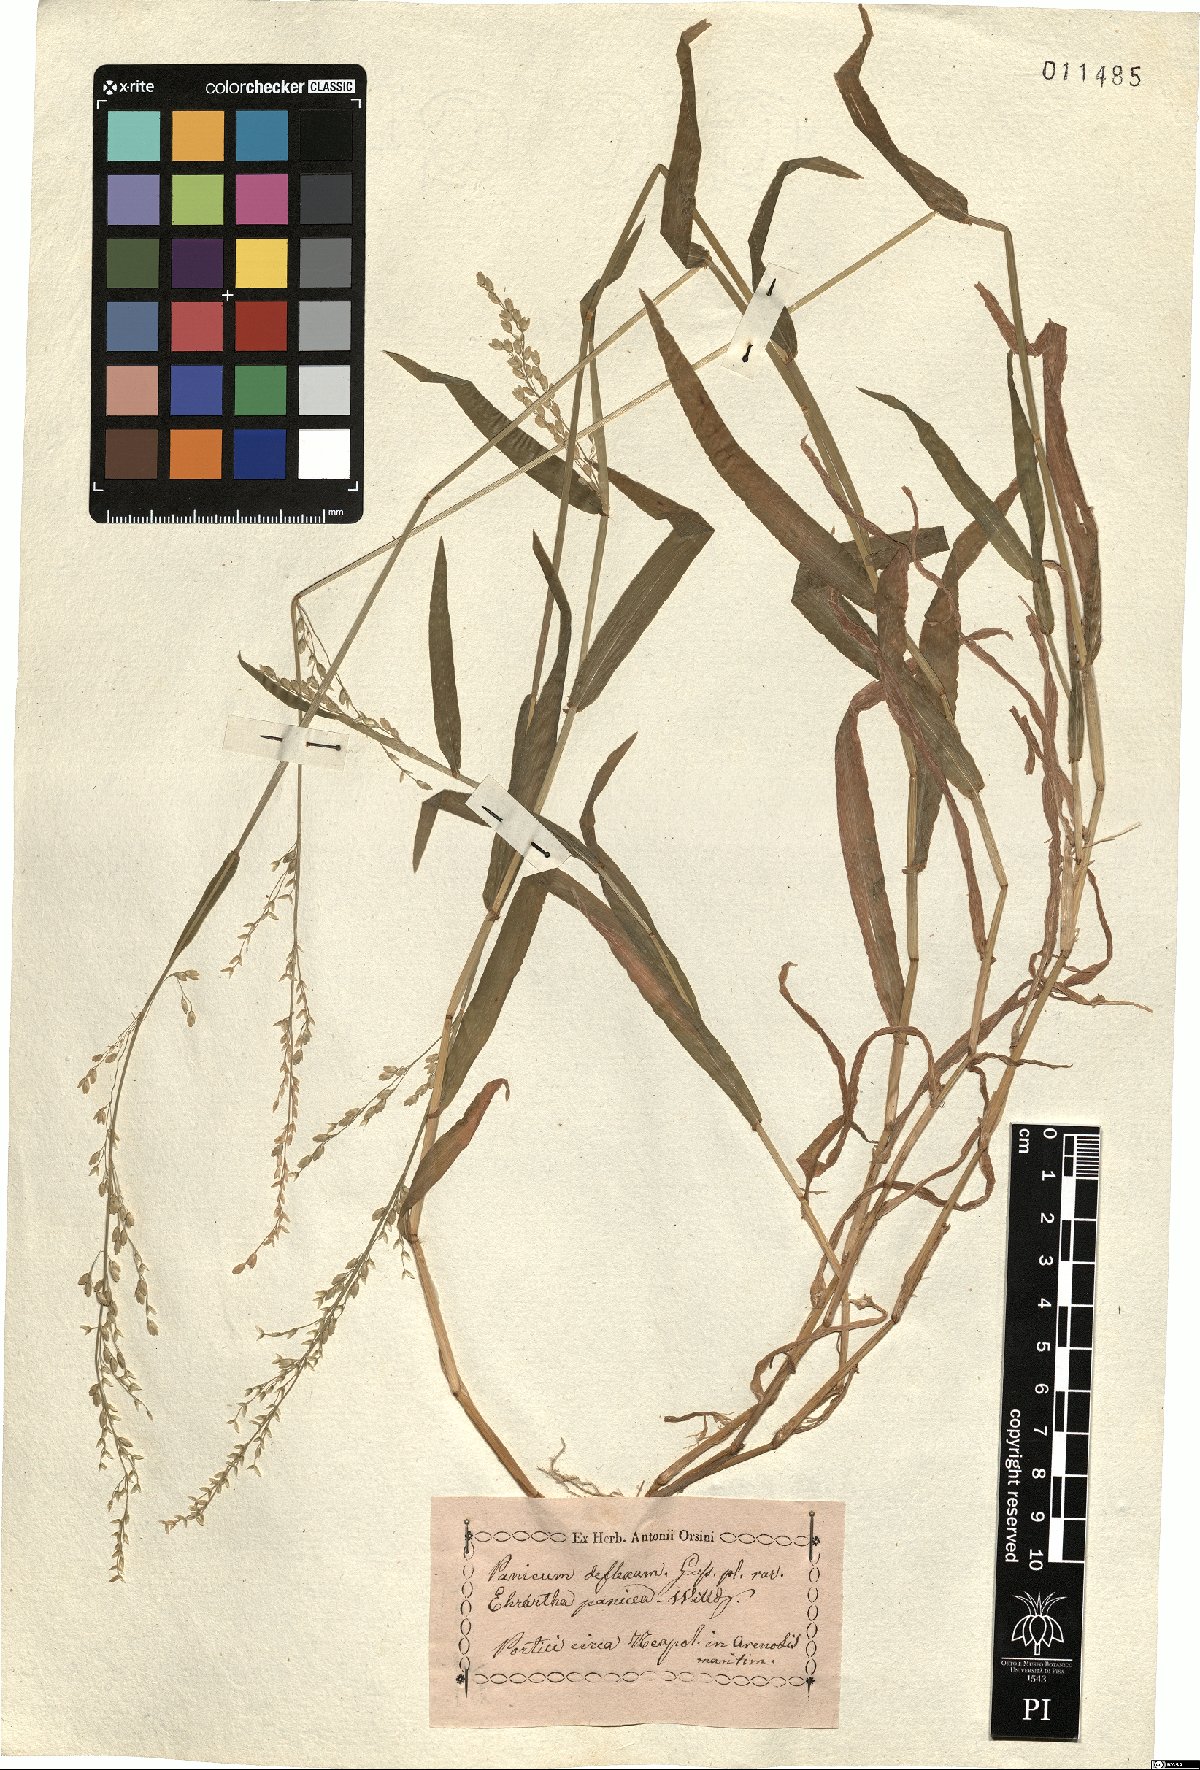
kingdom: Plantae
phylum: Tracheophyta
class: Liliopsida
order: Poales
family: Poaceae
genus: Ehrharta
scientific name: Ehrharta erecta
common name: Panic veldtgrass
